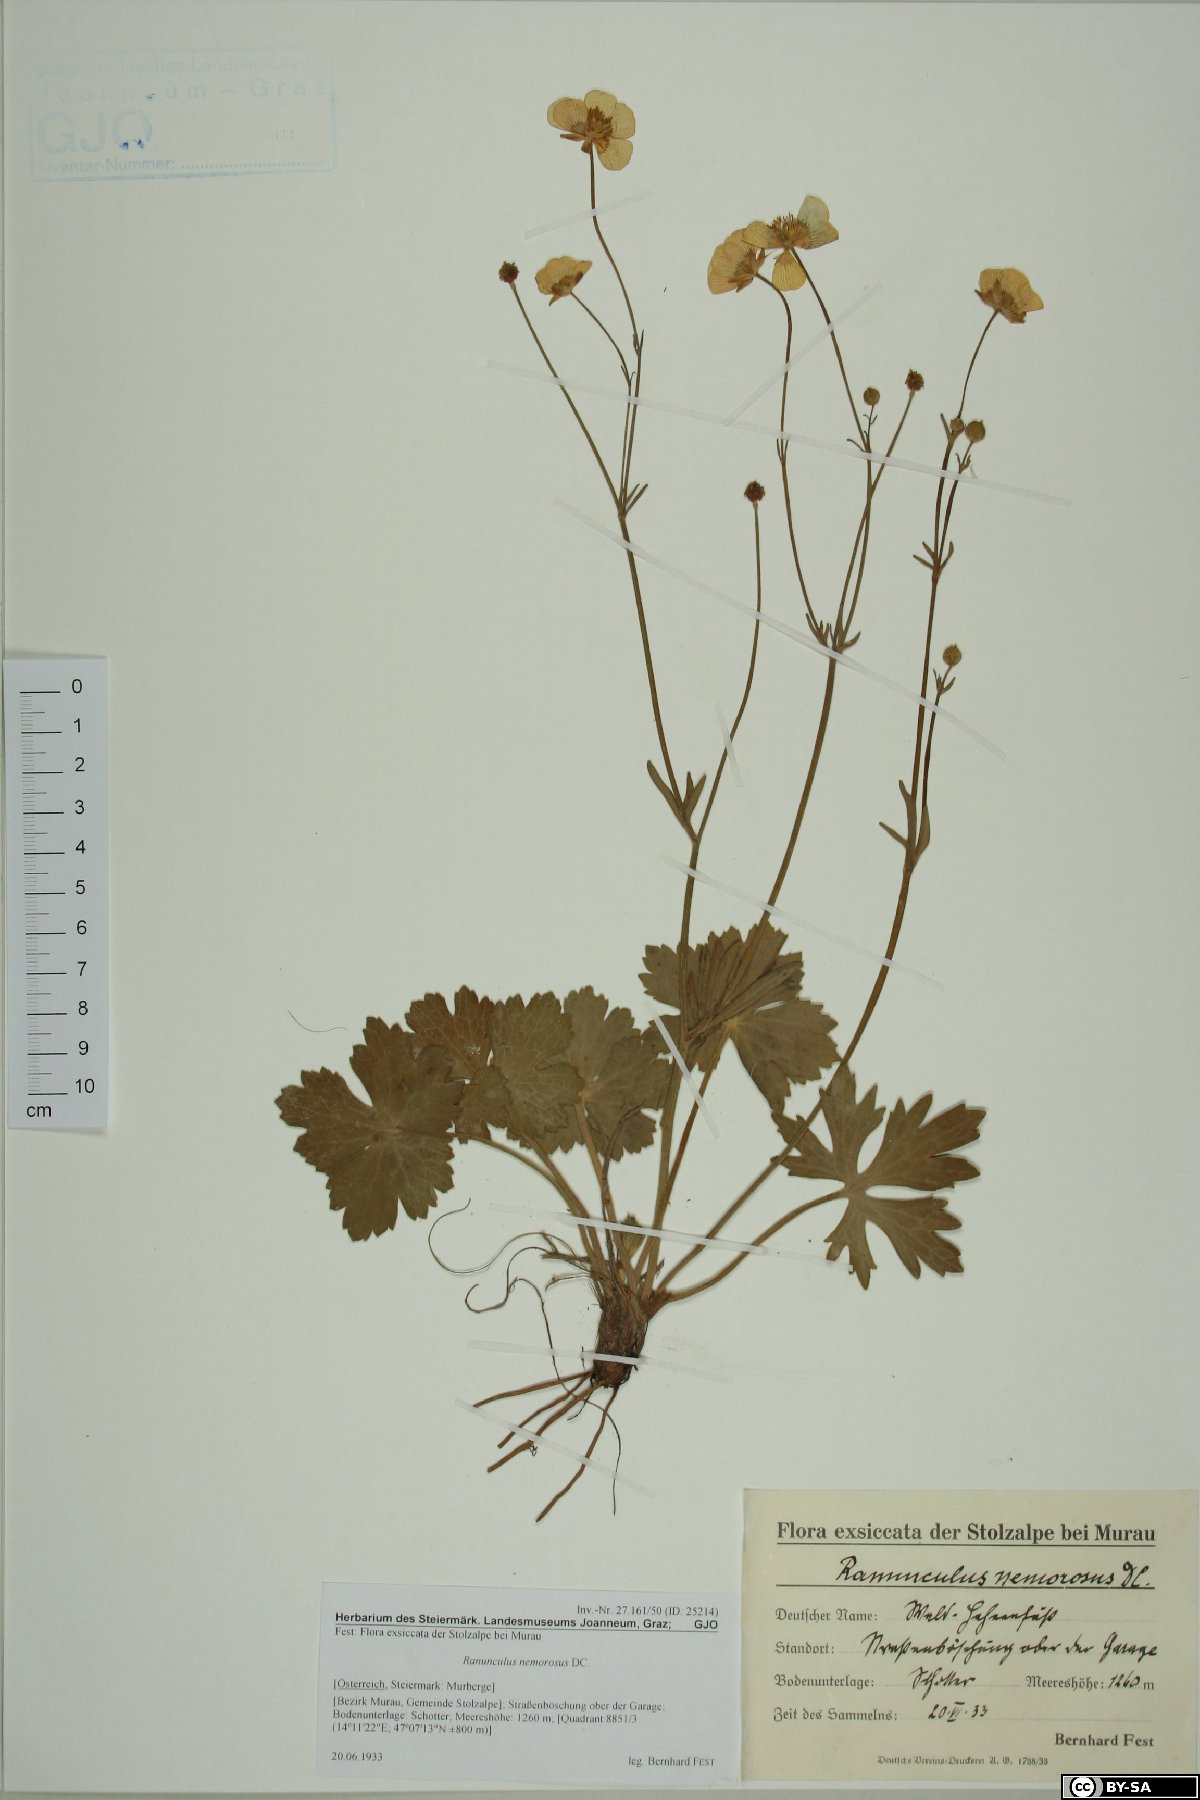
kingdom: Plantae
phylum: Tracheophyta
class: Magnoliopsida
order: Ranunculales
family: Ranunculaceae
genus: Ranunculus
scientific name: Ranunculus polyanthemos
